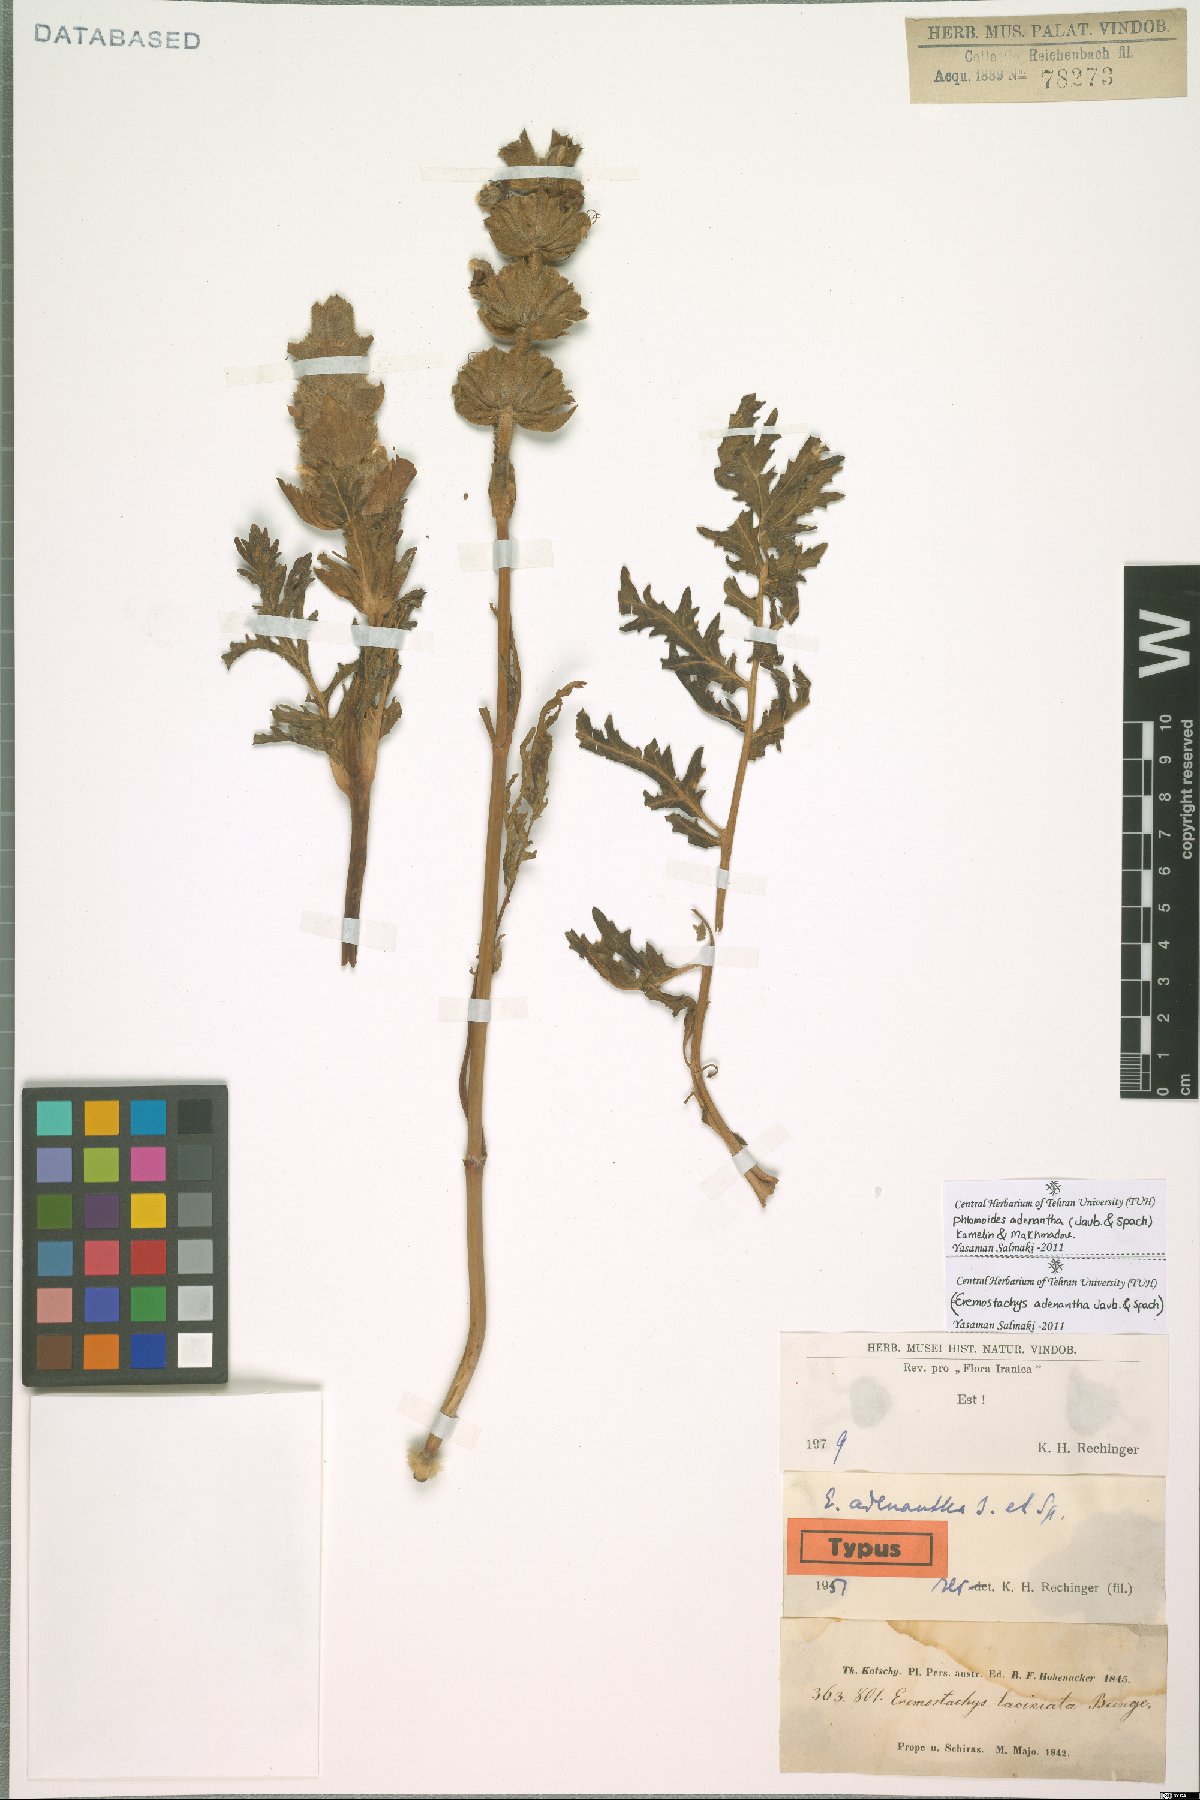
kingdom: Plantae
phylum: Tracheophyta
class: Magnoliopsida
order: Lamiales
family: Lamiaceae
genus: Phlomoides
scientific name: Phlomoides adenantha
